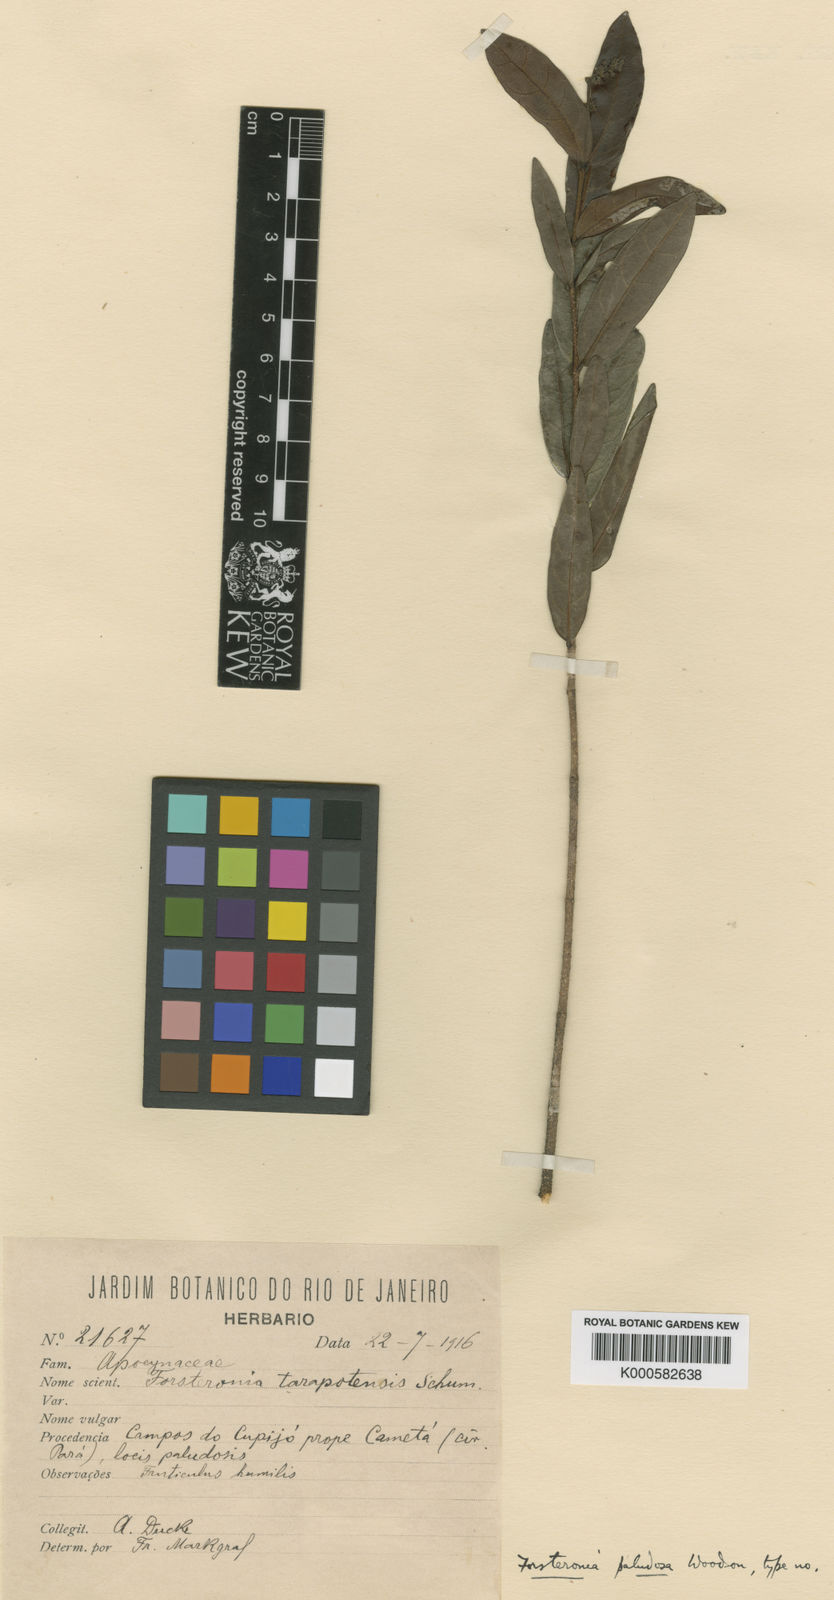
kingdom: Plantae
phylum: Tracheophyta
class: Magnoliopsida
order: Gentianales
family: Apocynaceae
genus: Forsteronia
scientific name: Forsteronia paludosa
